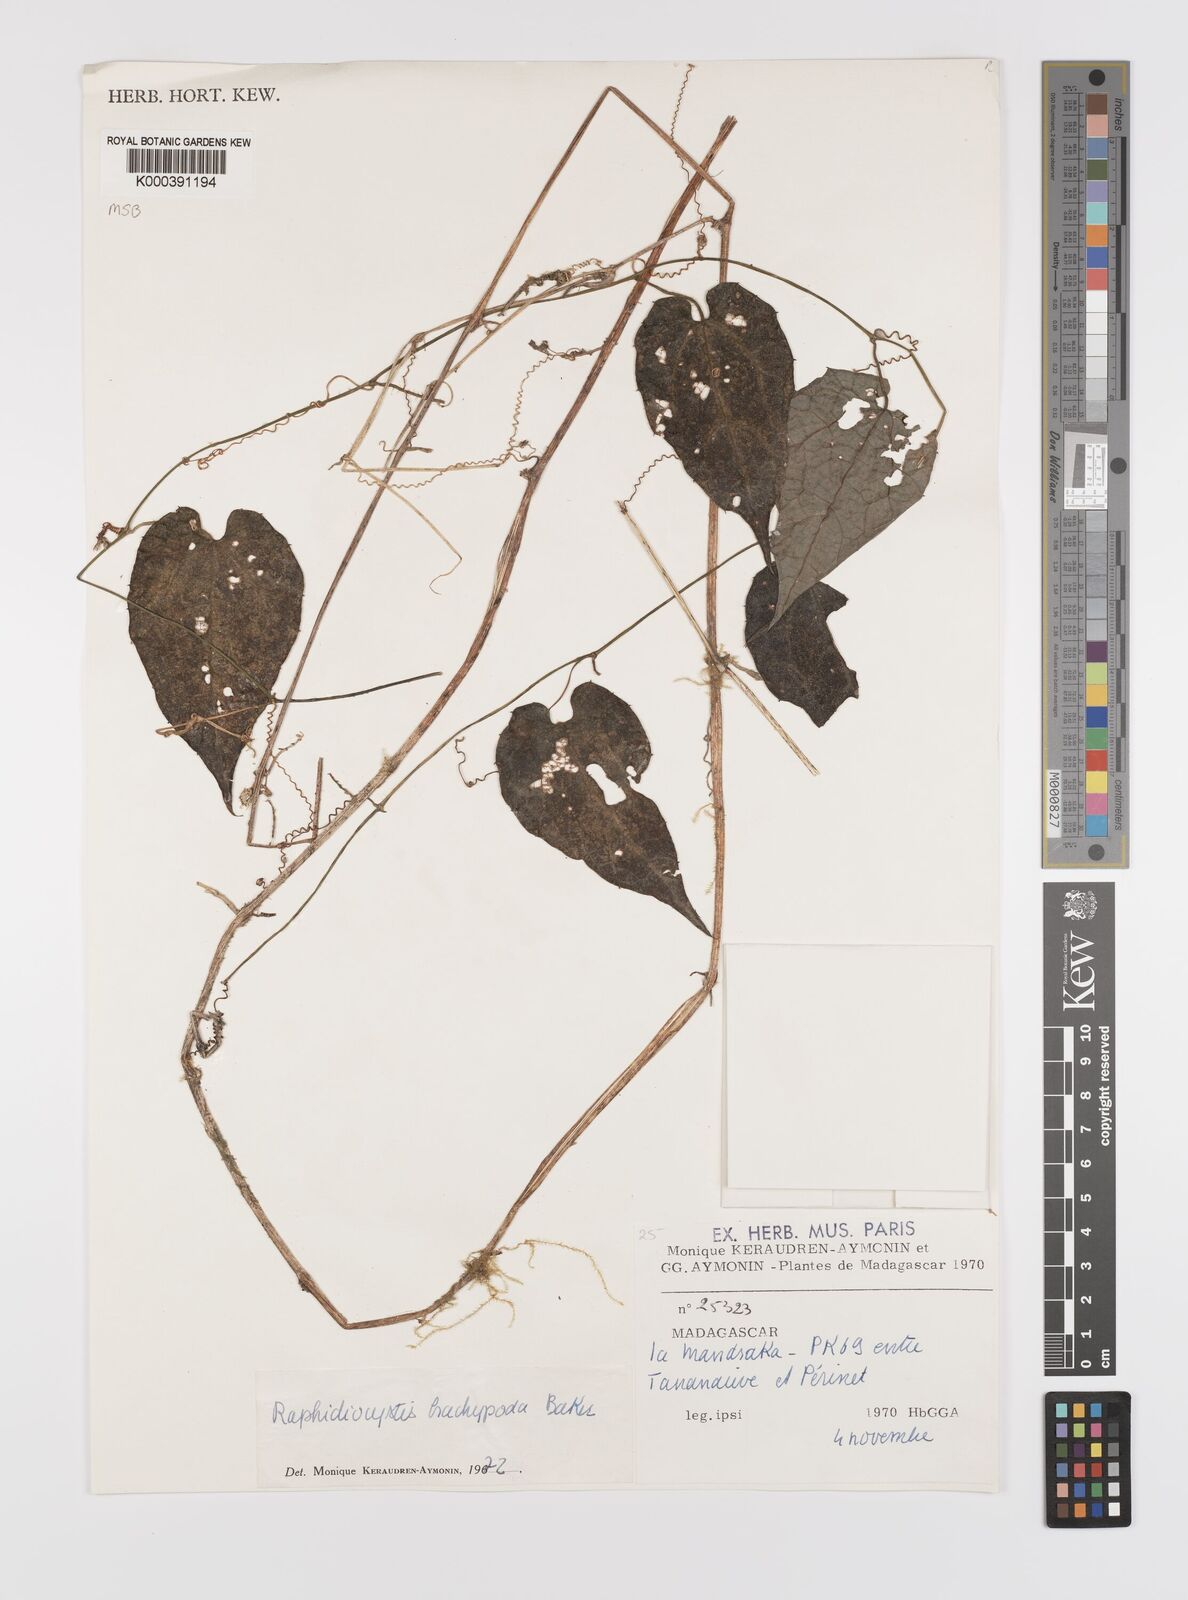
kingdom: Plantae
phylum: Tracheophyta
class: Magnoliopsida
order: Cucurbitales
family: Cucurbitaceae
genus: Raphidiocystis
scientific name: Raphidiocystis brachypoda
